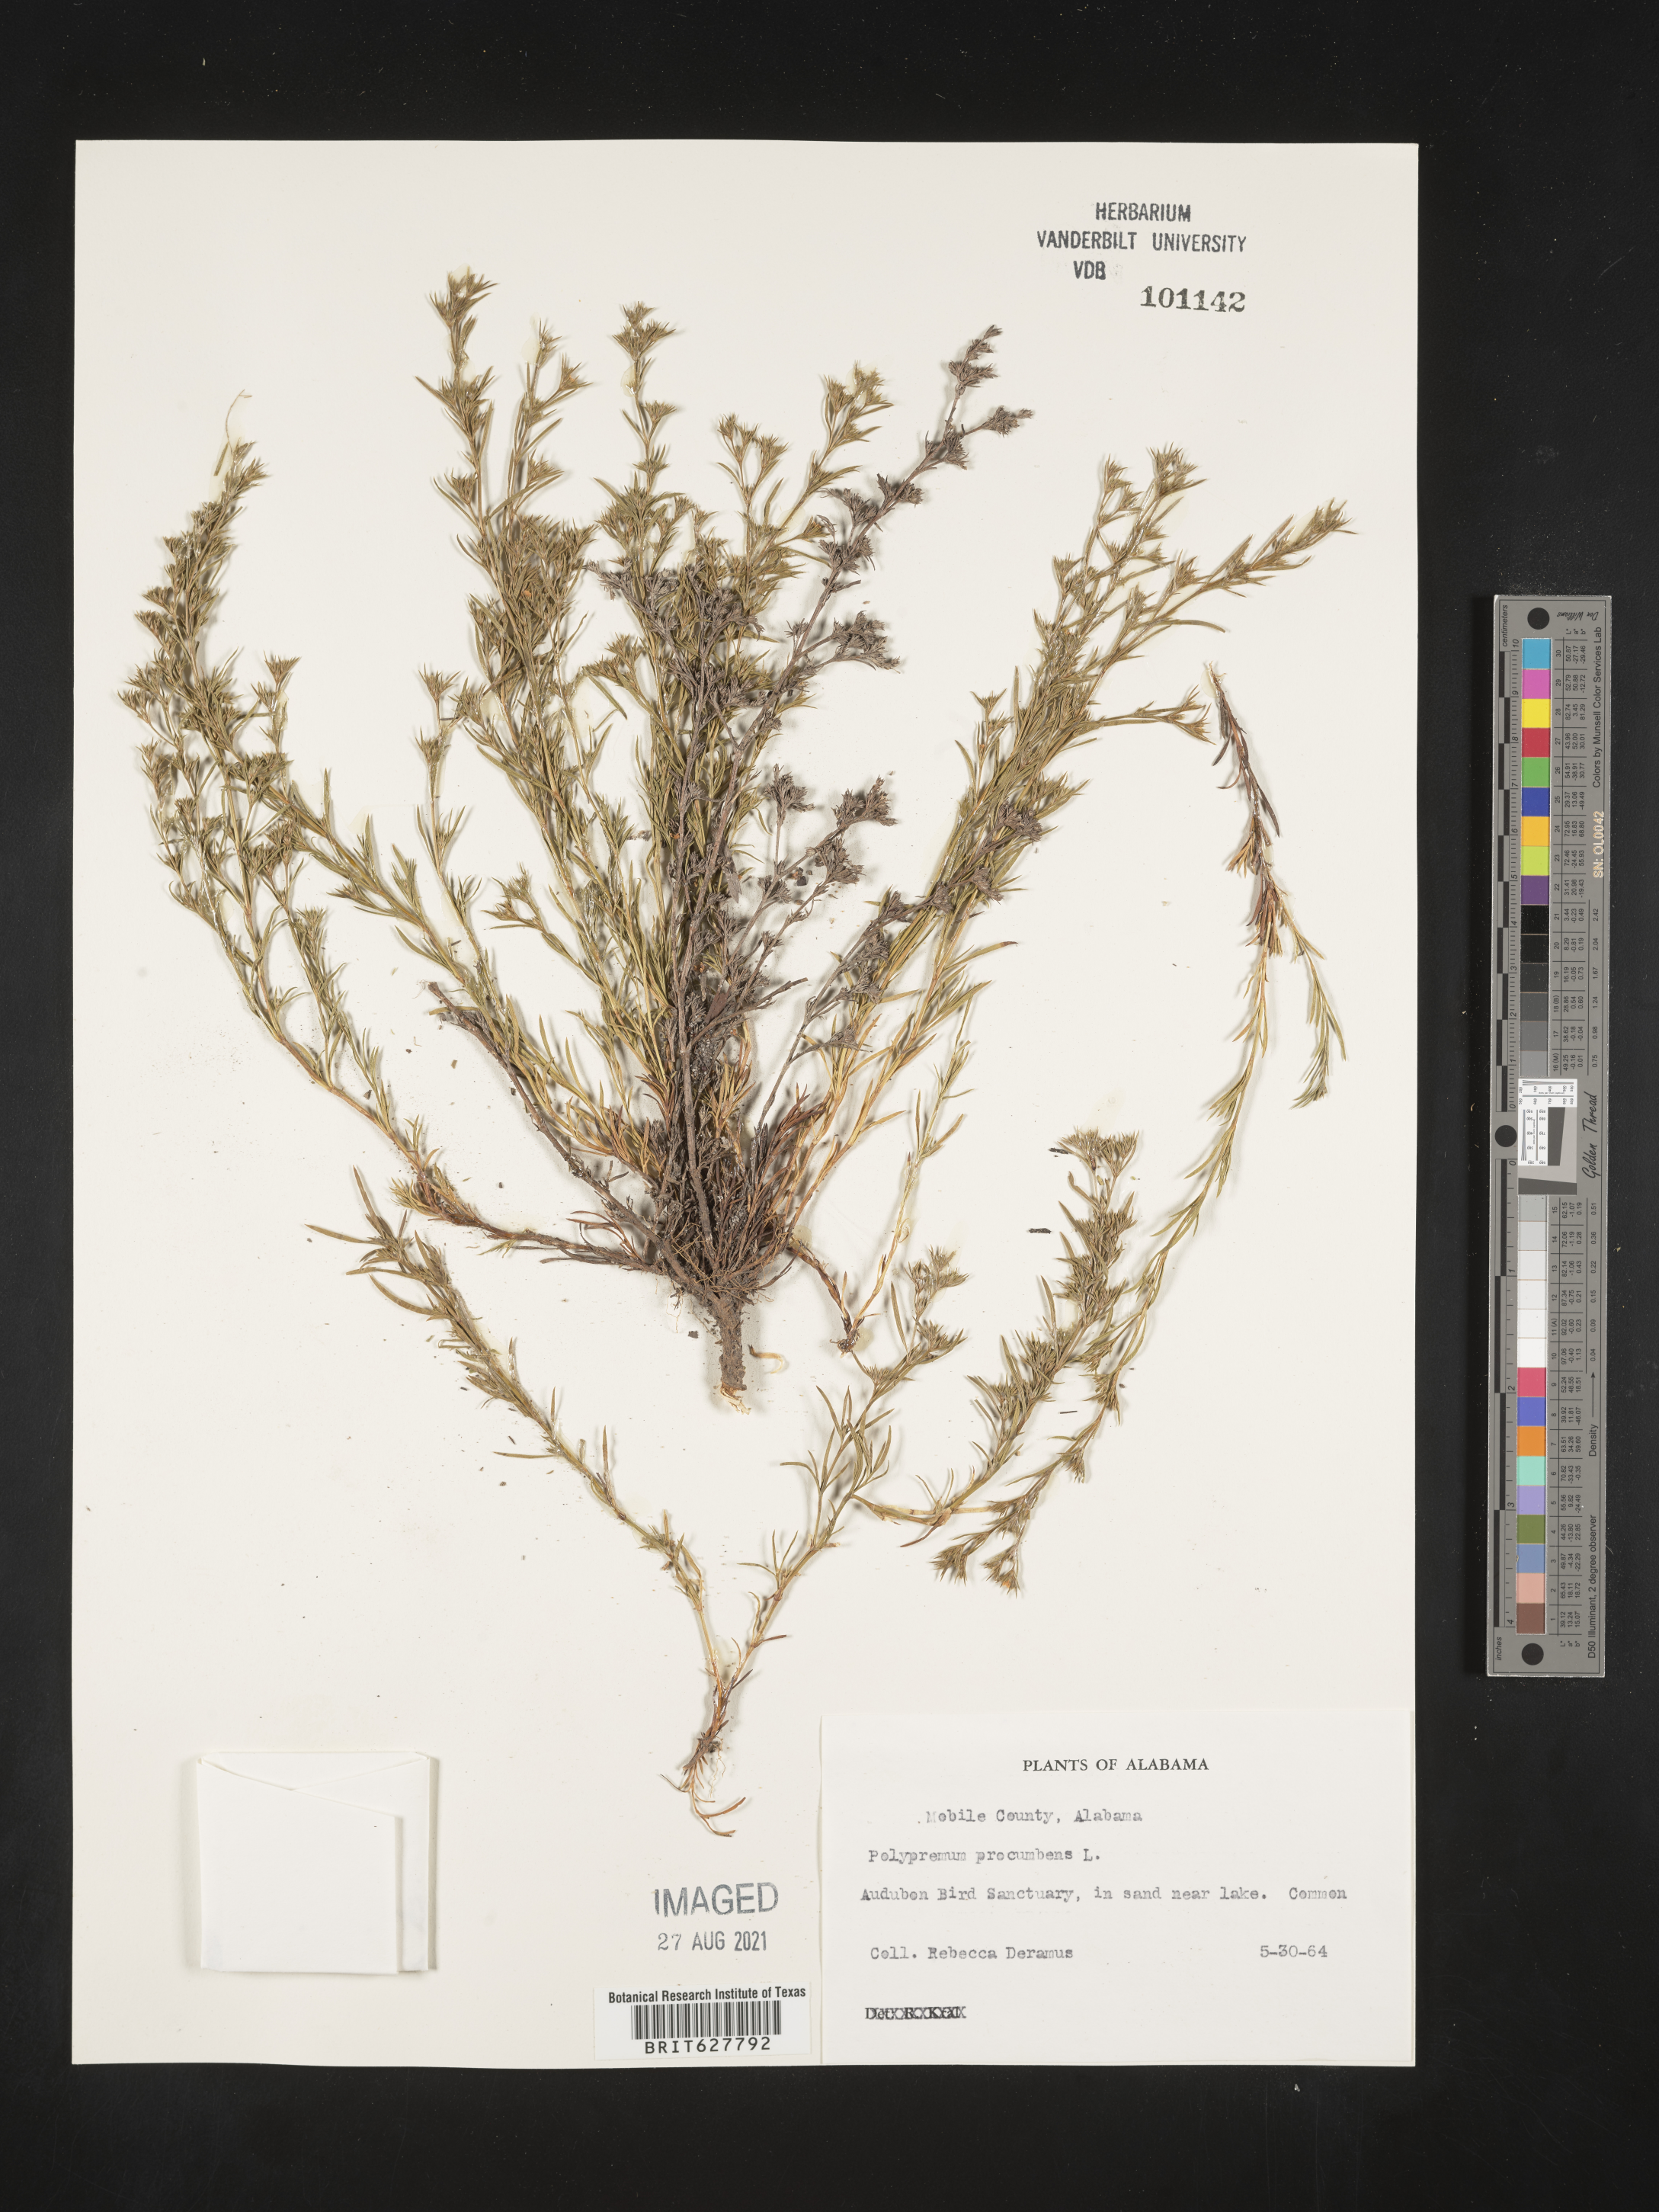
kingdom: Plantae
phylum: Tracheophyta
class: Magnoliopsida
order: Lamiales
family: Tetrachondraceae
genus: Polypremum
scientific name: Polypremum procumbens
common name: Juniper-leaf
